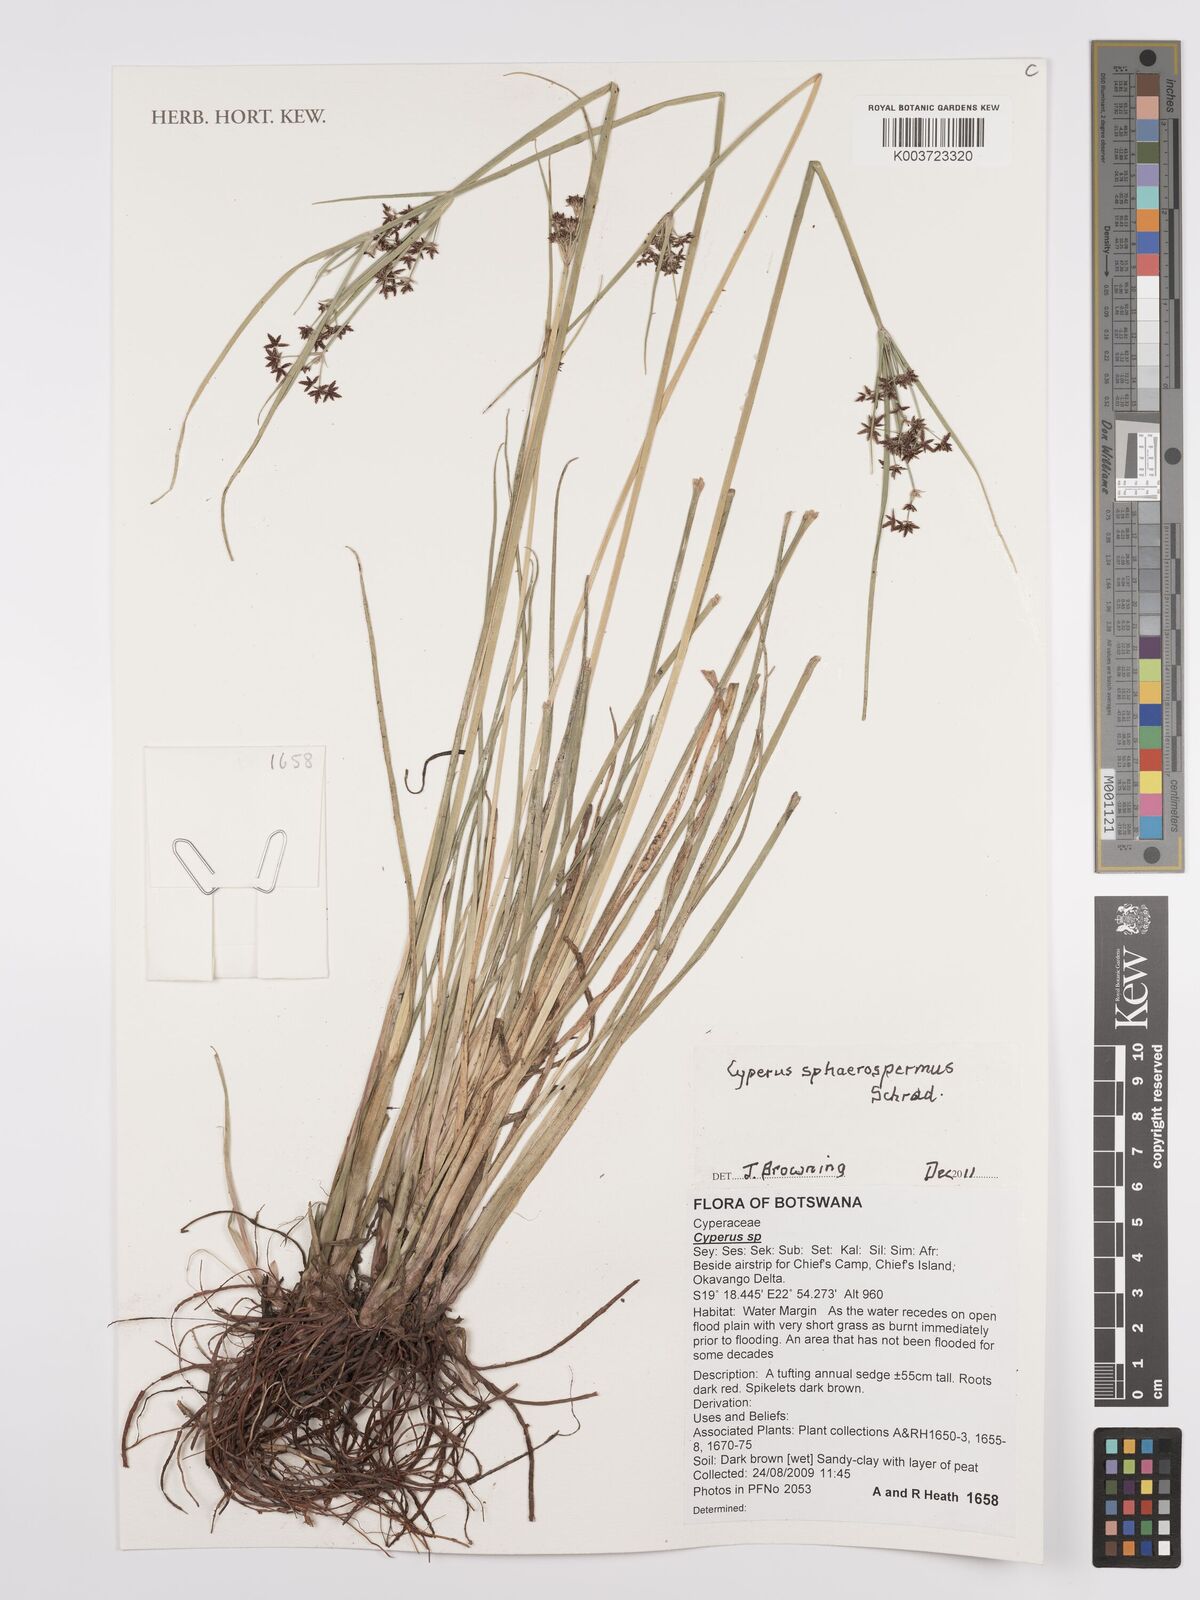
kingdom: Plantae
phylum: Tracheophyta
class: Liliopsida
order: Poales
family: Cyperaceae
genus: Cyperus
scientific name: Cyperus denudatus
